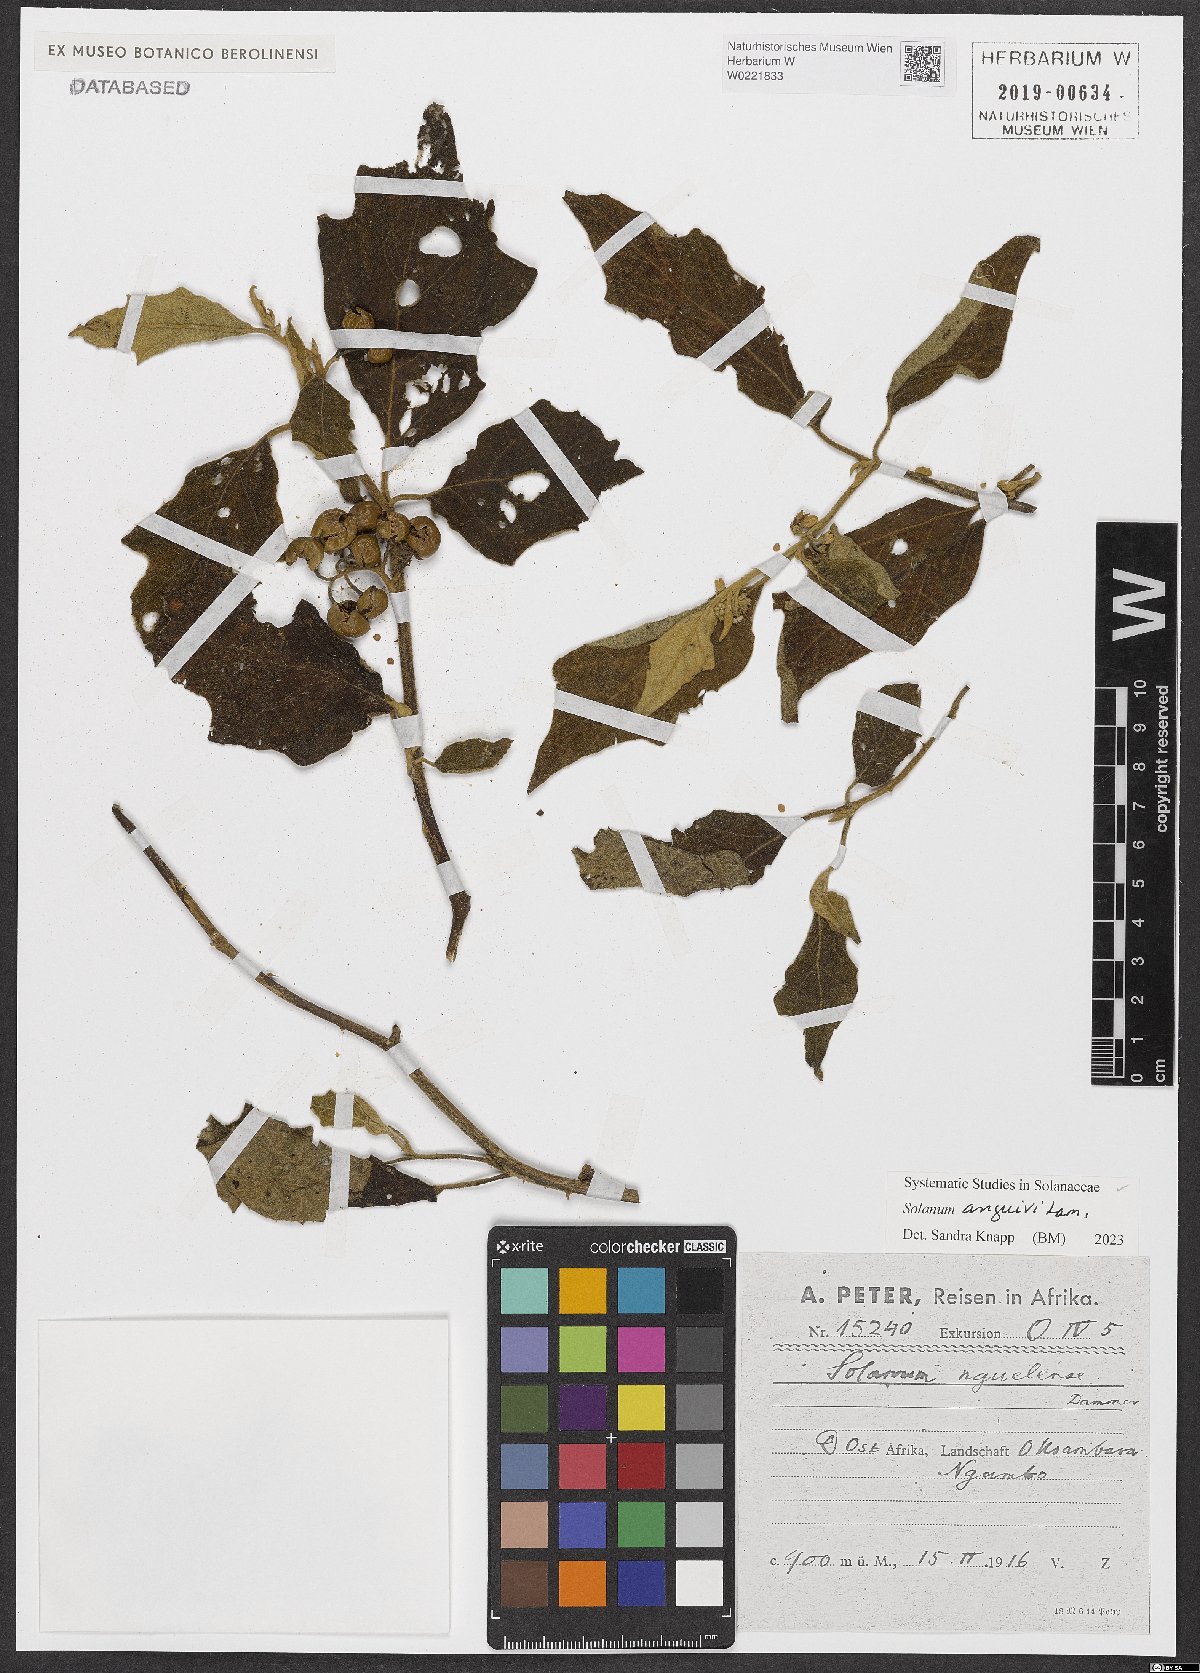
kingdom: Plantae
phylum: Tracheophyta
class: Magnoliopsida
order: Solanales
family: Solanaceae
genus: Solanum
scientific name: Solanum anguivi
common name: Forest bitterberry
